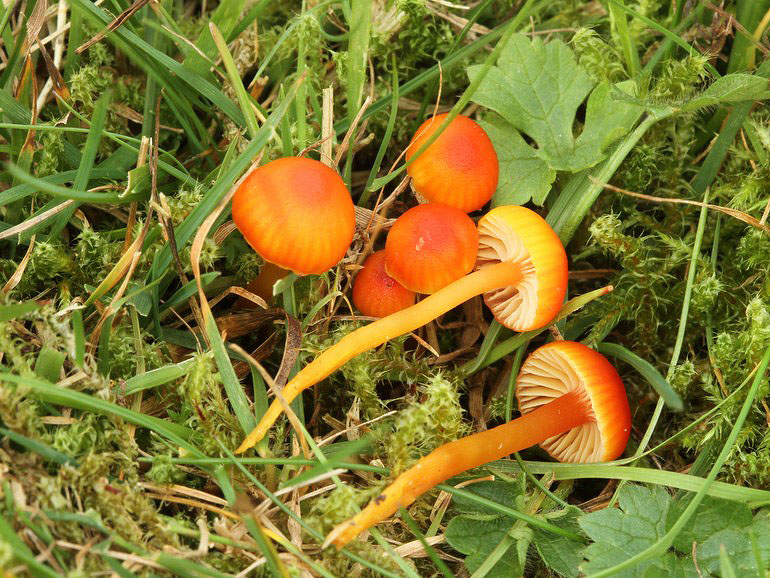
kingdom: Fungi
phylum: Basidiomycota
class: Agaricomycetes
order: Agaricales
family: Hygrophoraceae
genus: Hygrocybe
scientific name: Hygrocybe insipida
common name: liden vokshat
